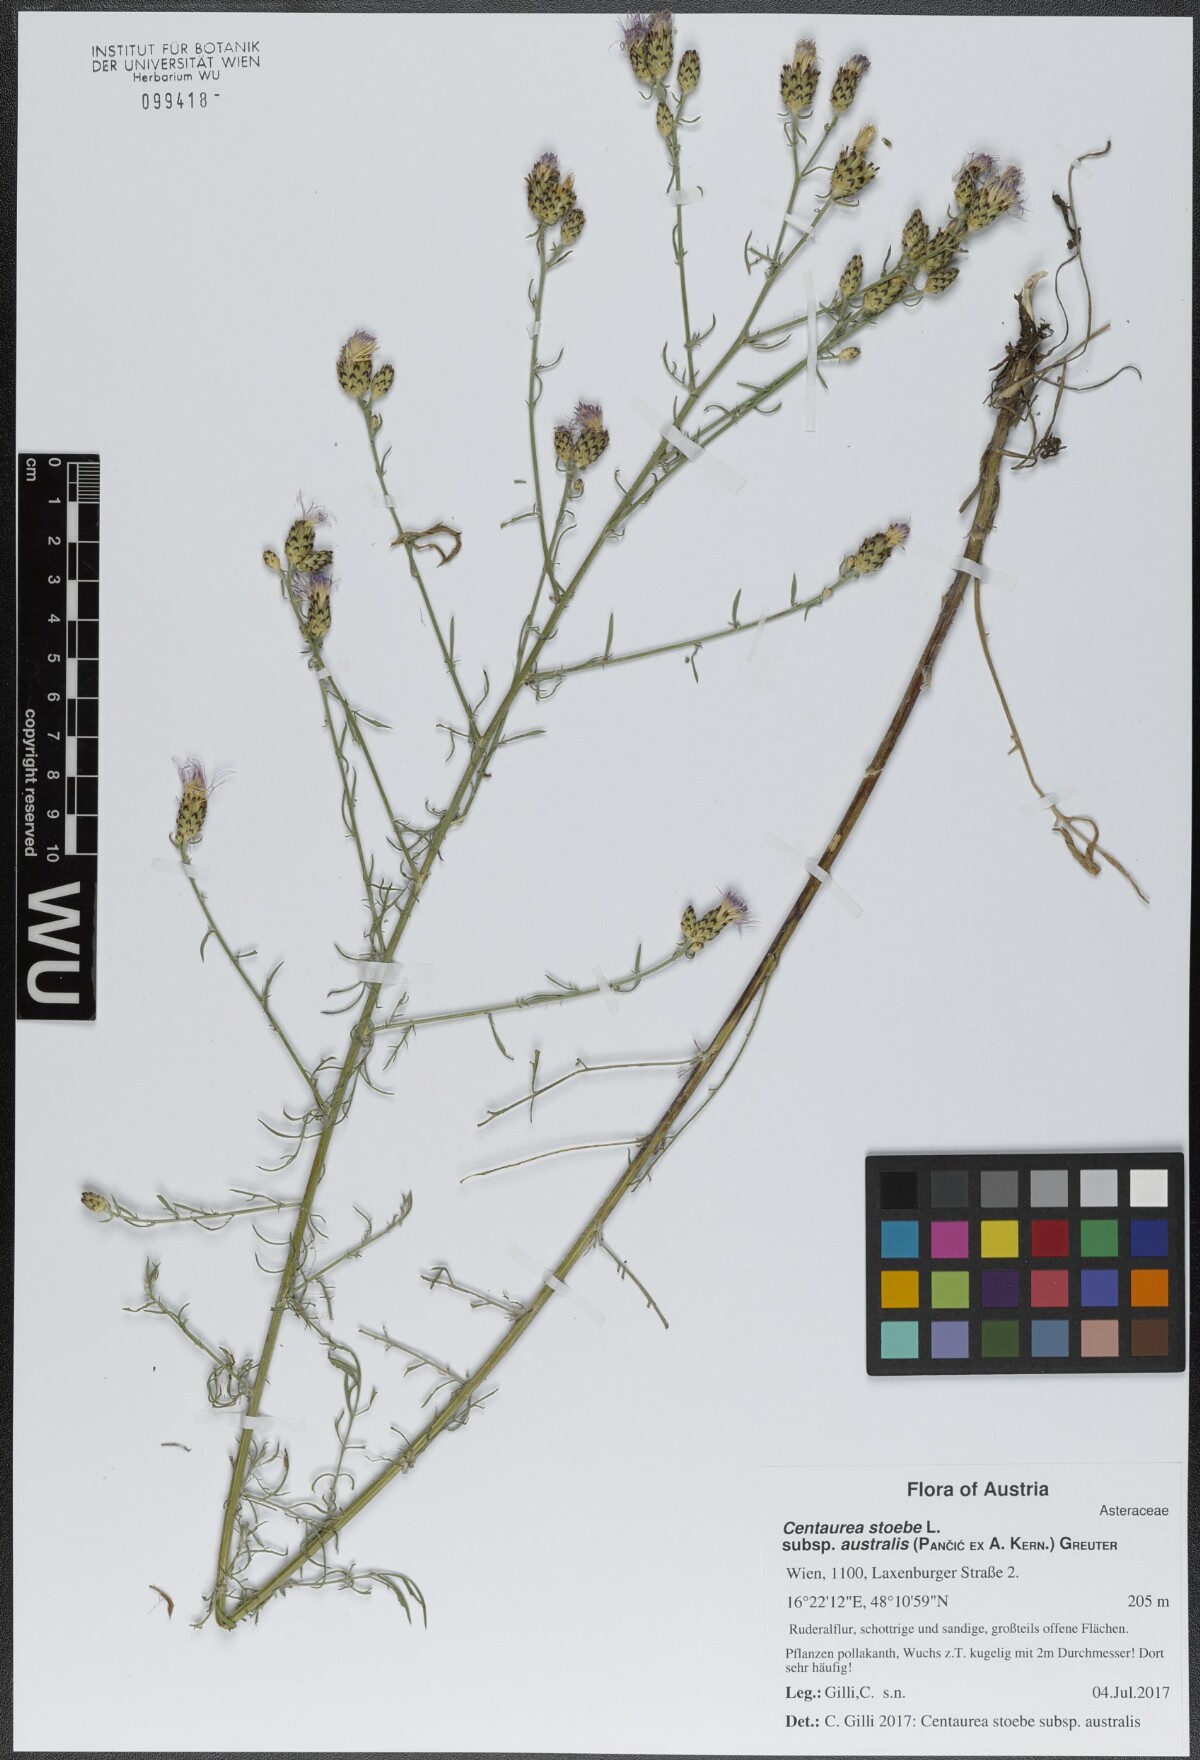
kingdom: Plantae
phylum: Tracheophyta
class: Magnoliopsida
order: Asterales
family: Asteraceae
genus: Centaurea
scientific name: Centaurea australis
